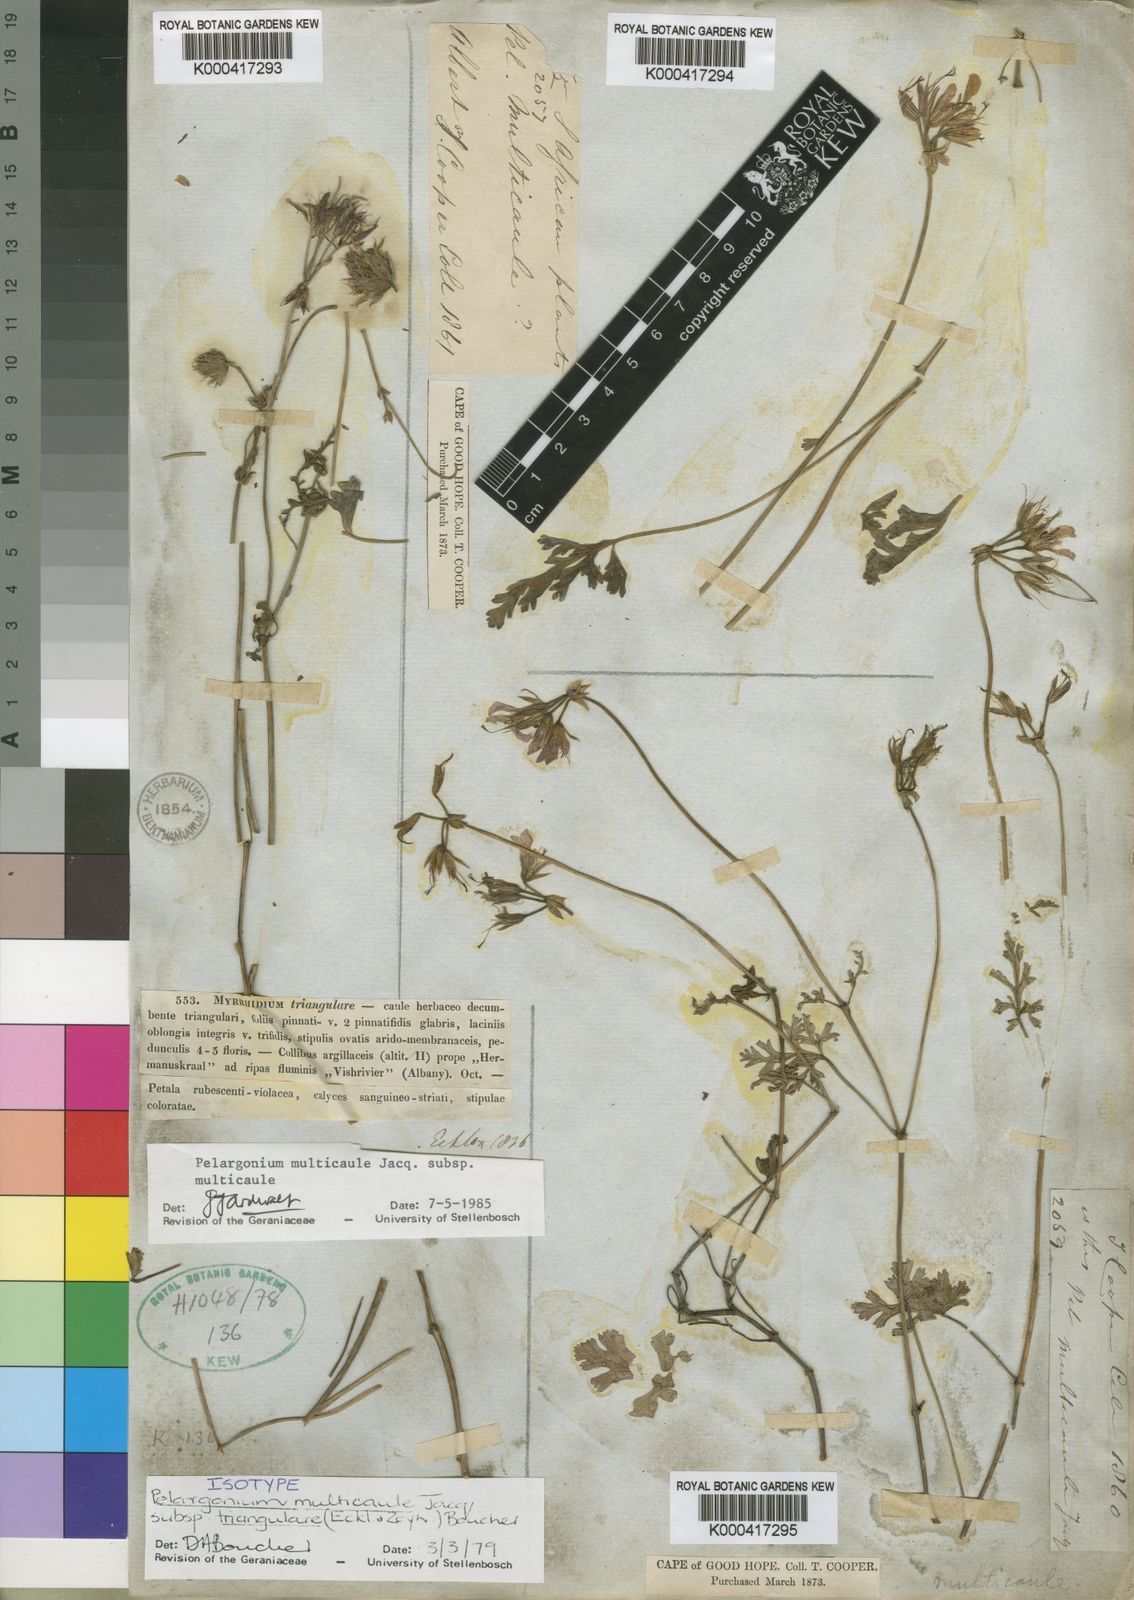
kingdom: Plantae
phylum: Tracheophyta
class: Magnoliopsida
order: Geraniales
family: Geraniaceae
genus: Pelargonium
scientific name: Pelargonium multicaule
